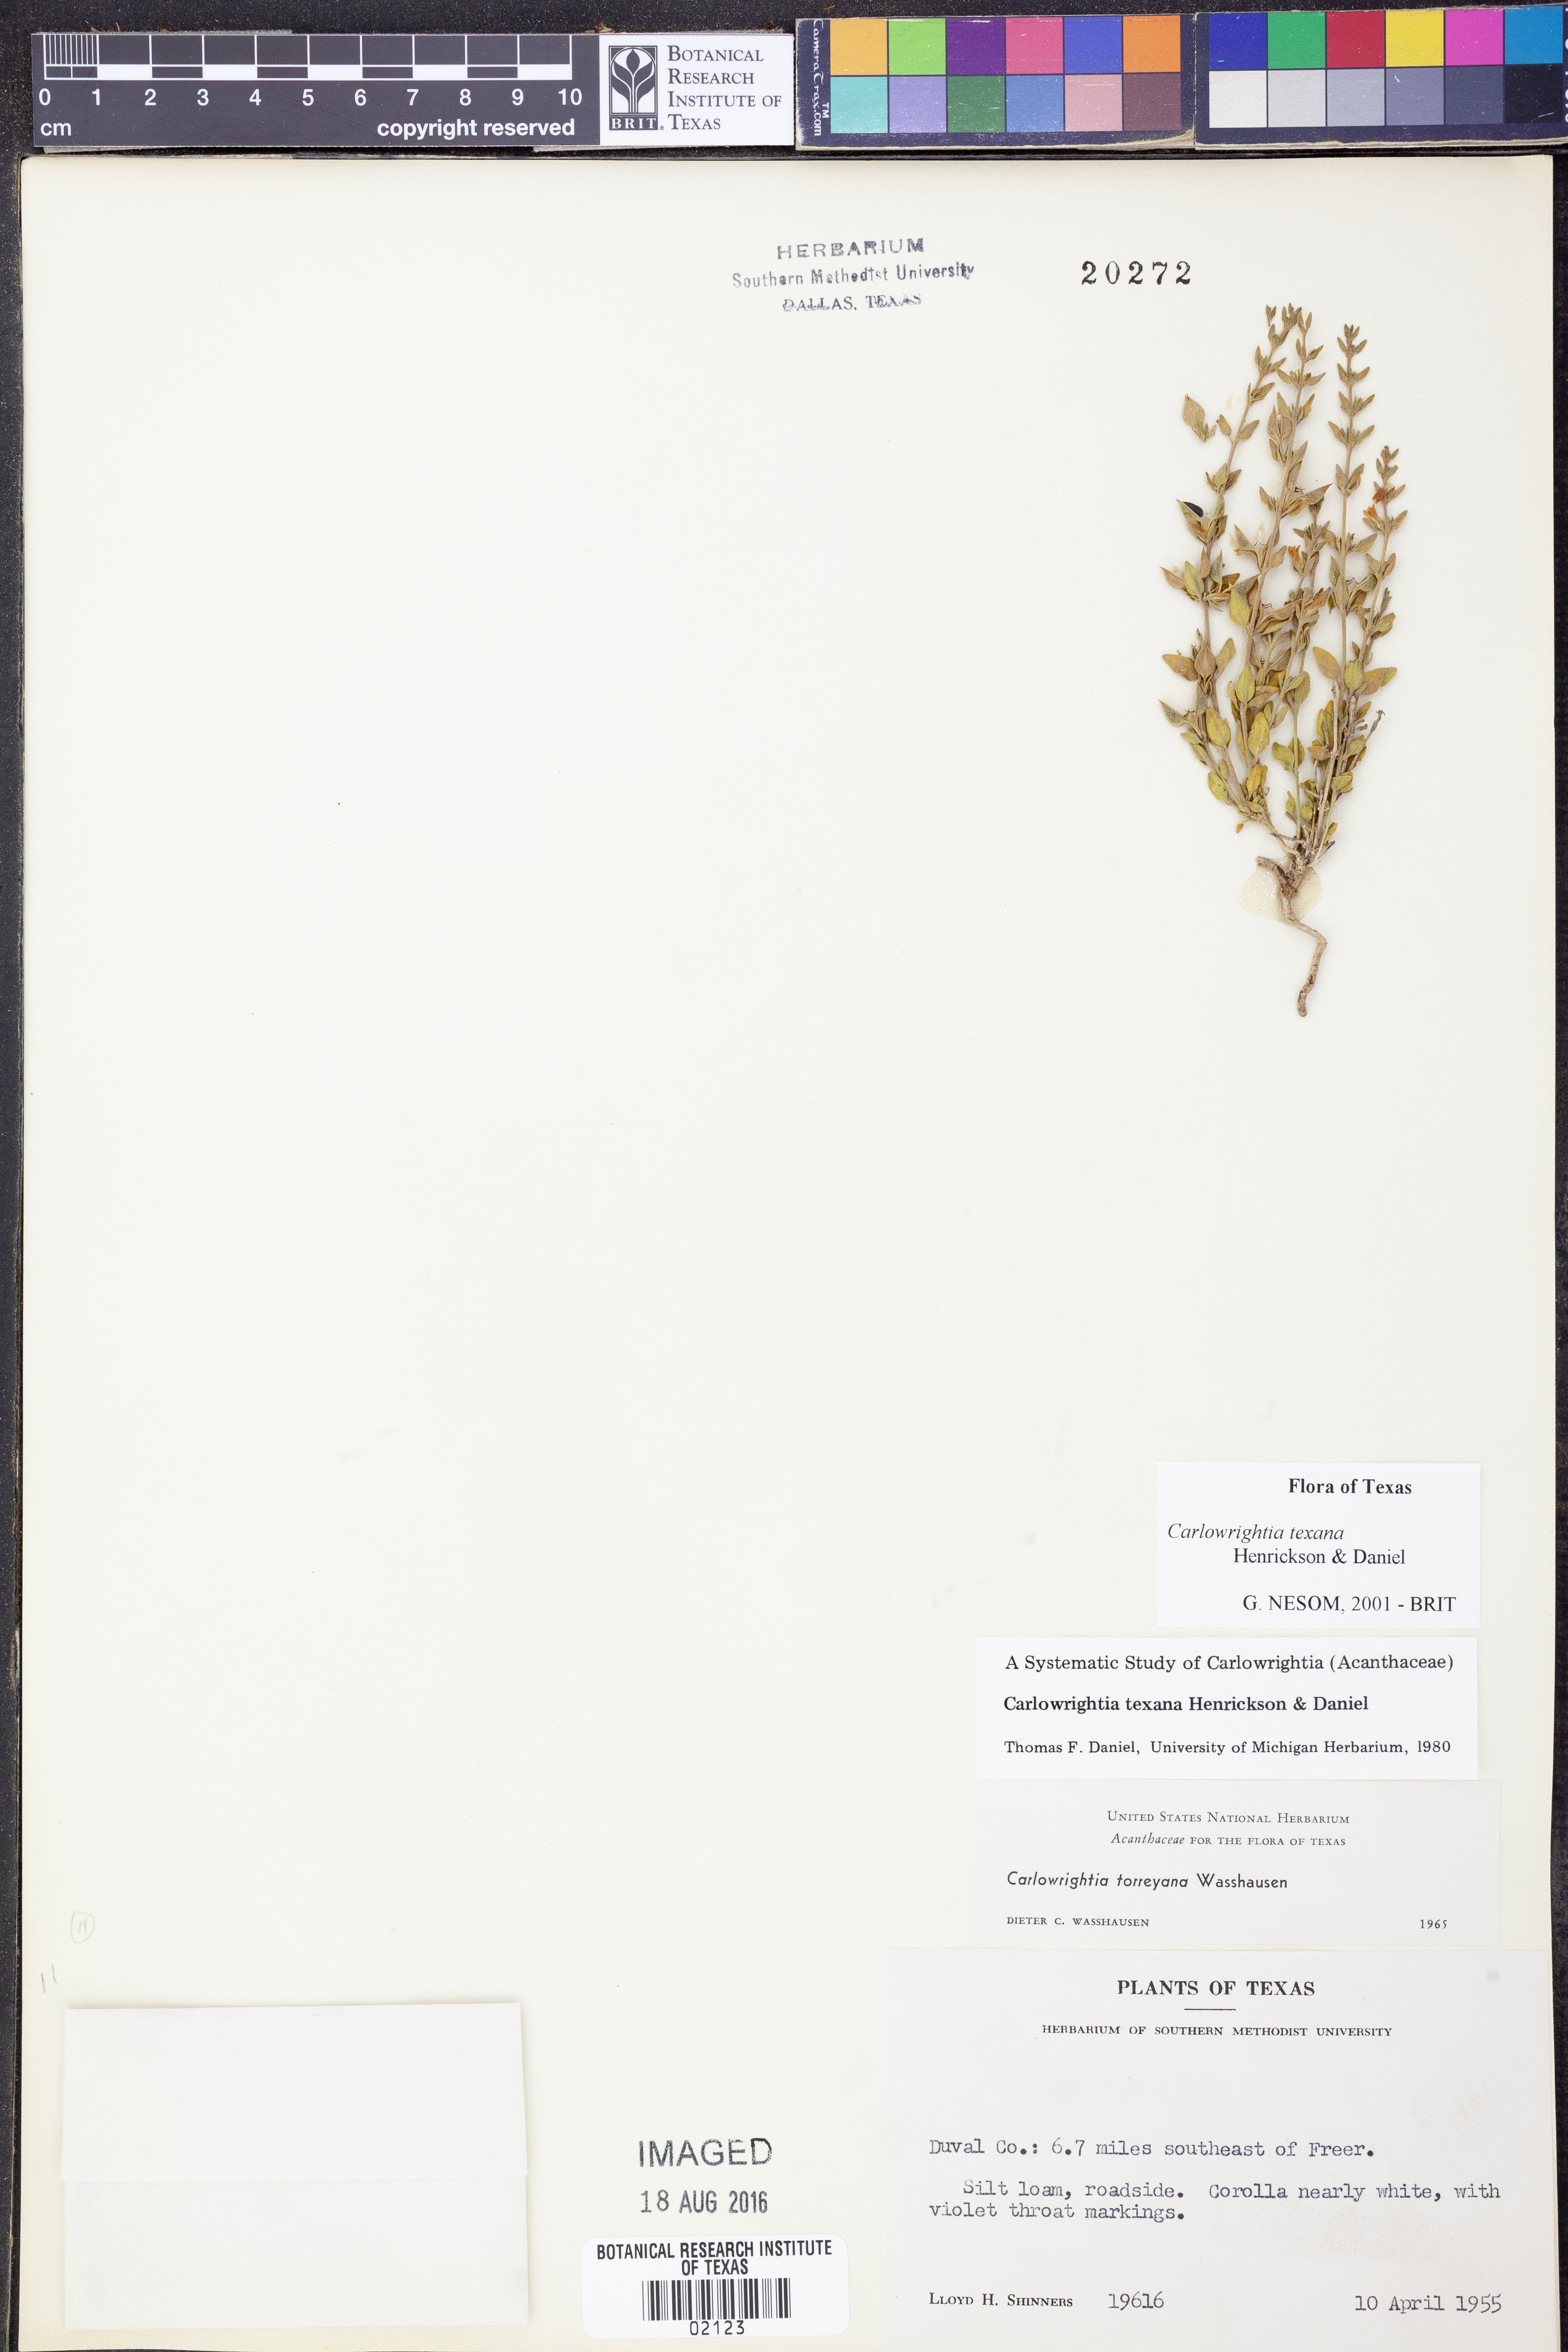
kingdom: Plantae
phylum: Tracheophyta
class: Magnoliopsida
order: Lamiales
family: Acanthaceae
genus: Carlowrightia
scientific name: Carlowrightia texana
